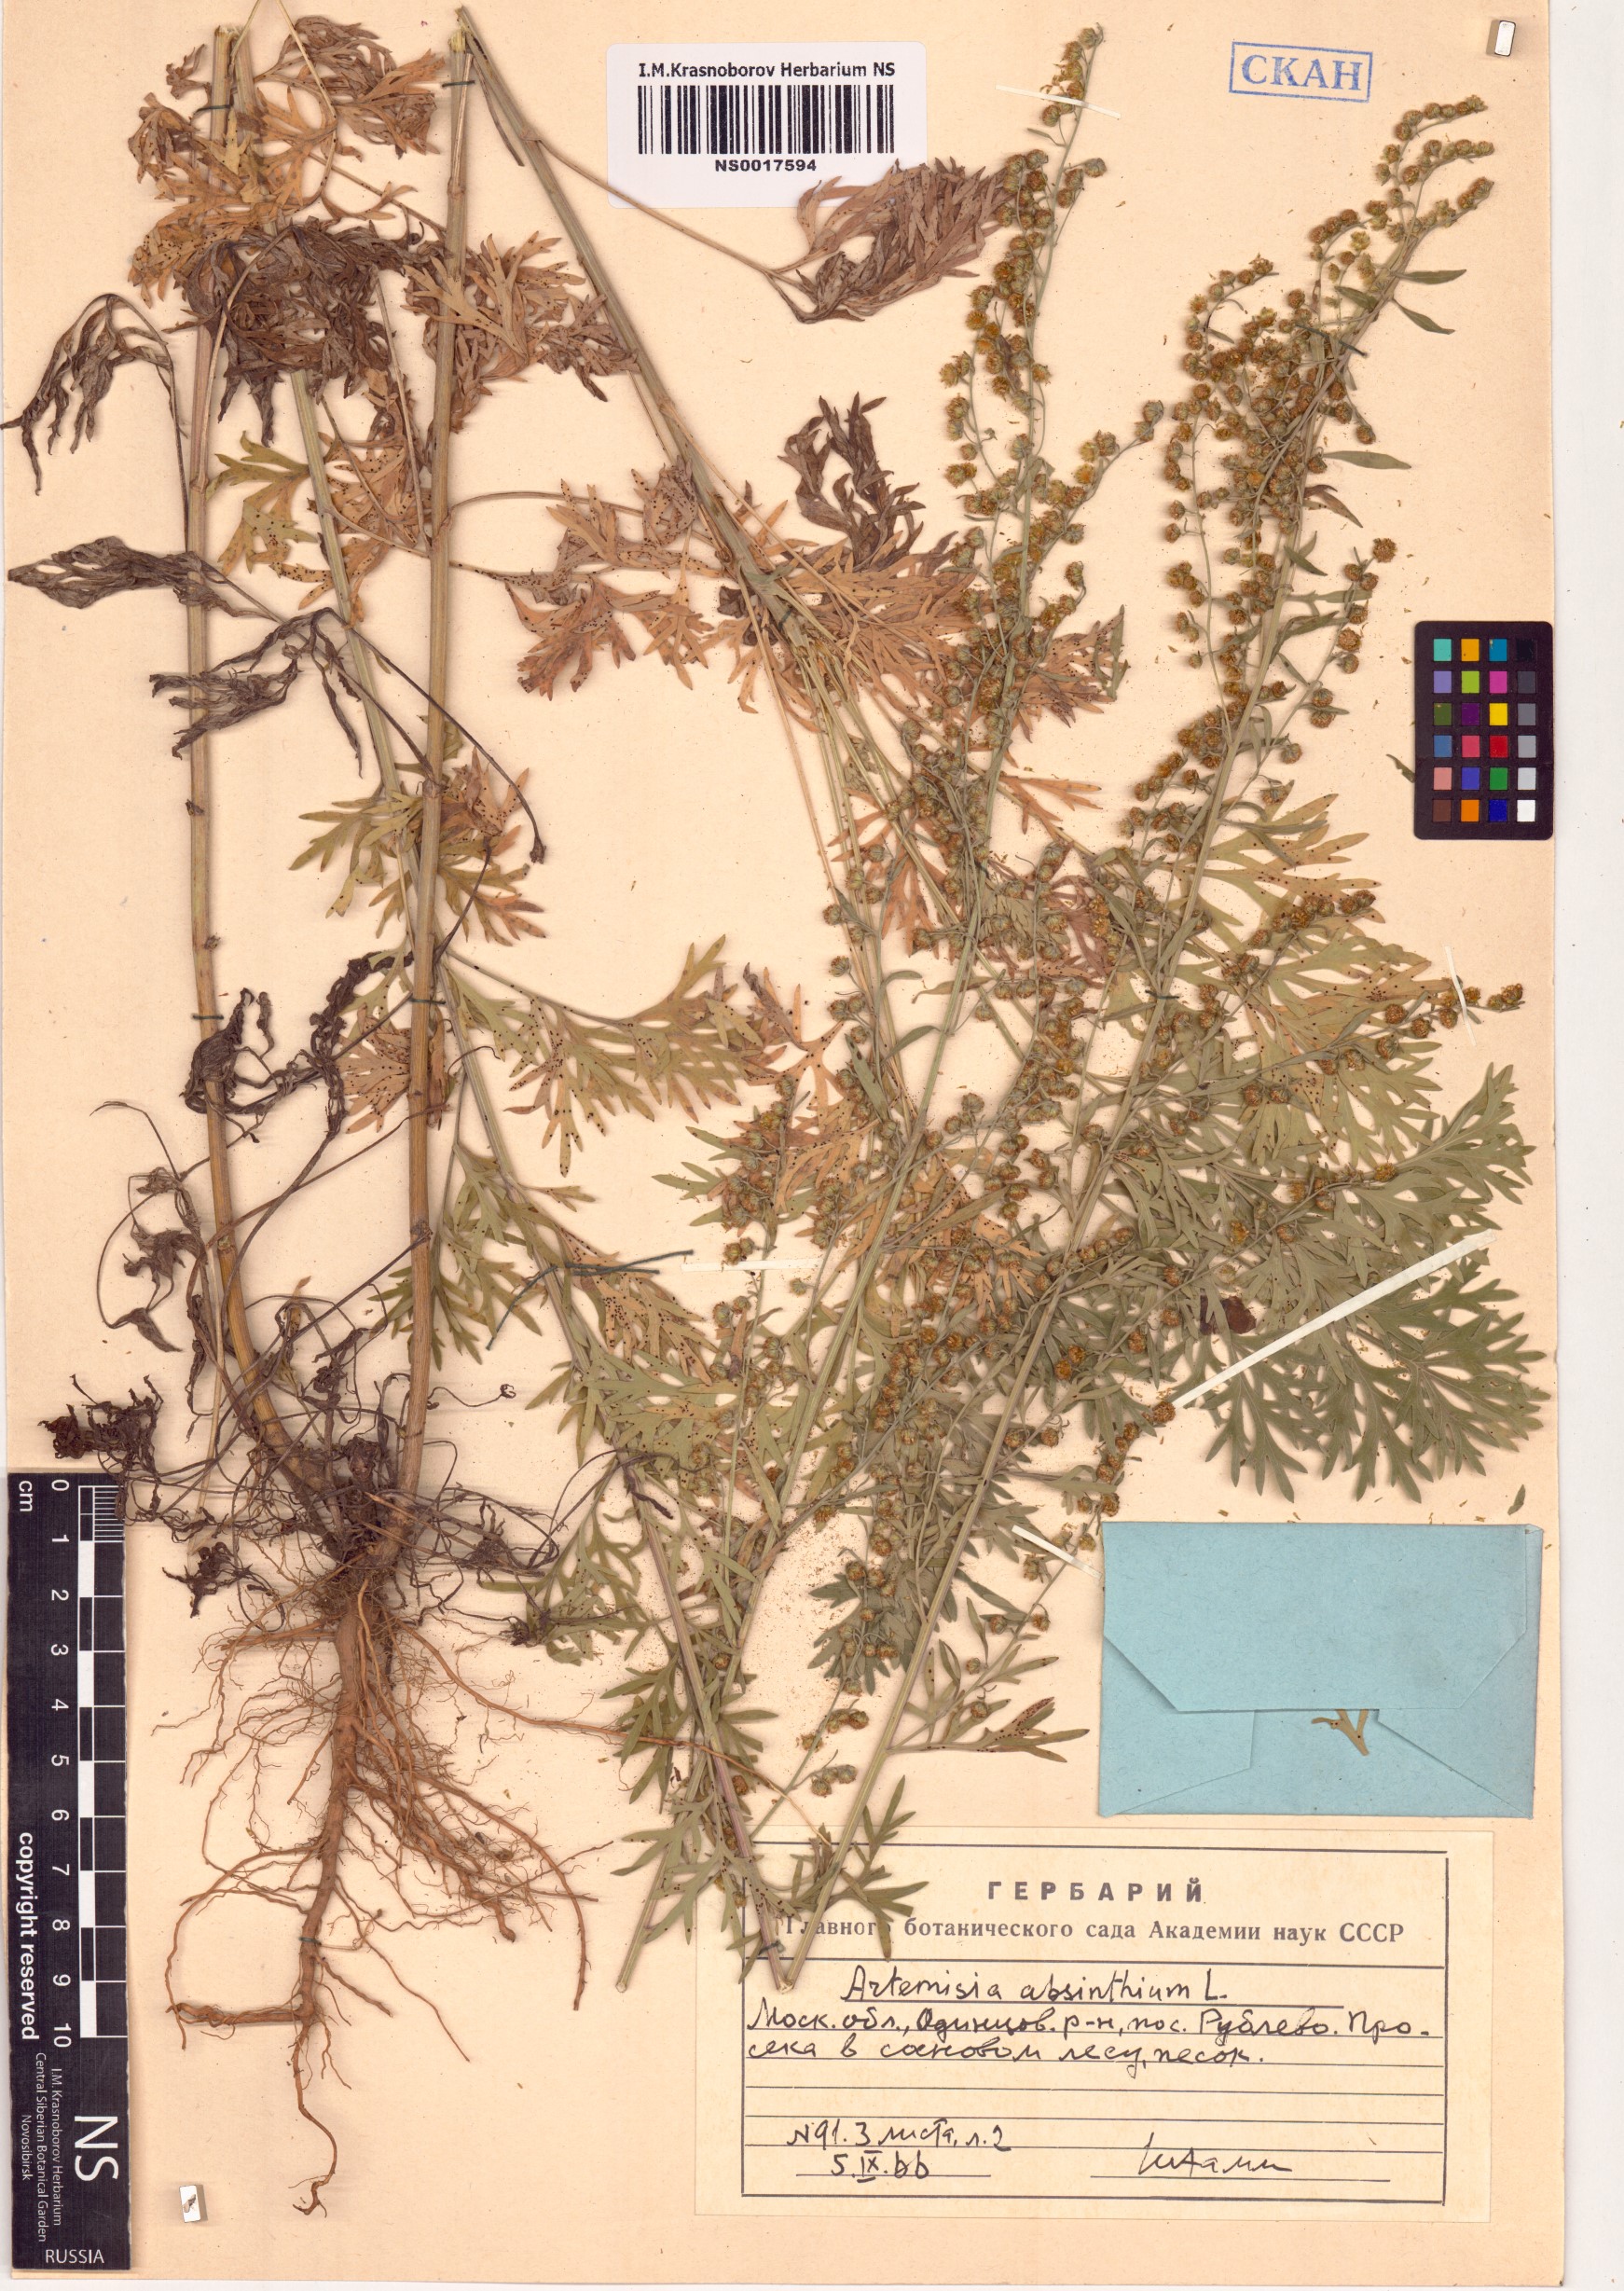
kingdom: Plantae
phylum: Tracheophyta
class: Magnoliopsida
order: Asterales
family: Asteraceae
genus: Artemisia
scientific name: Artemisia absinthium
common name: Wormwood
